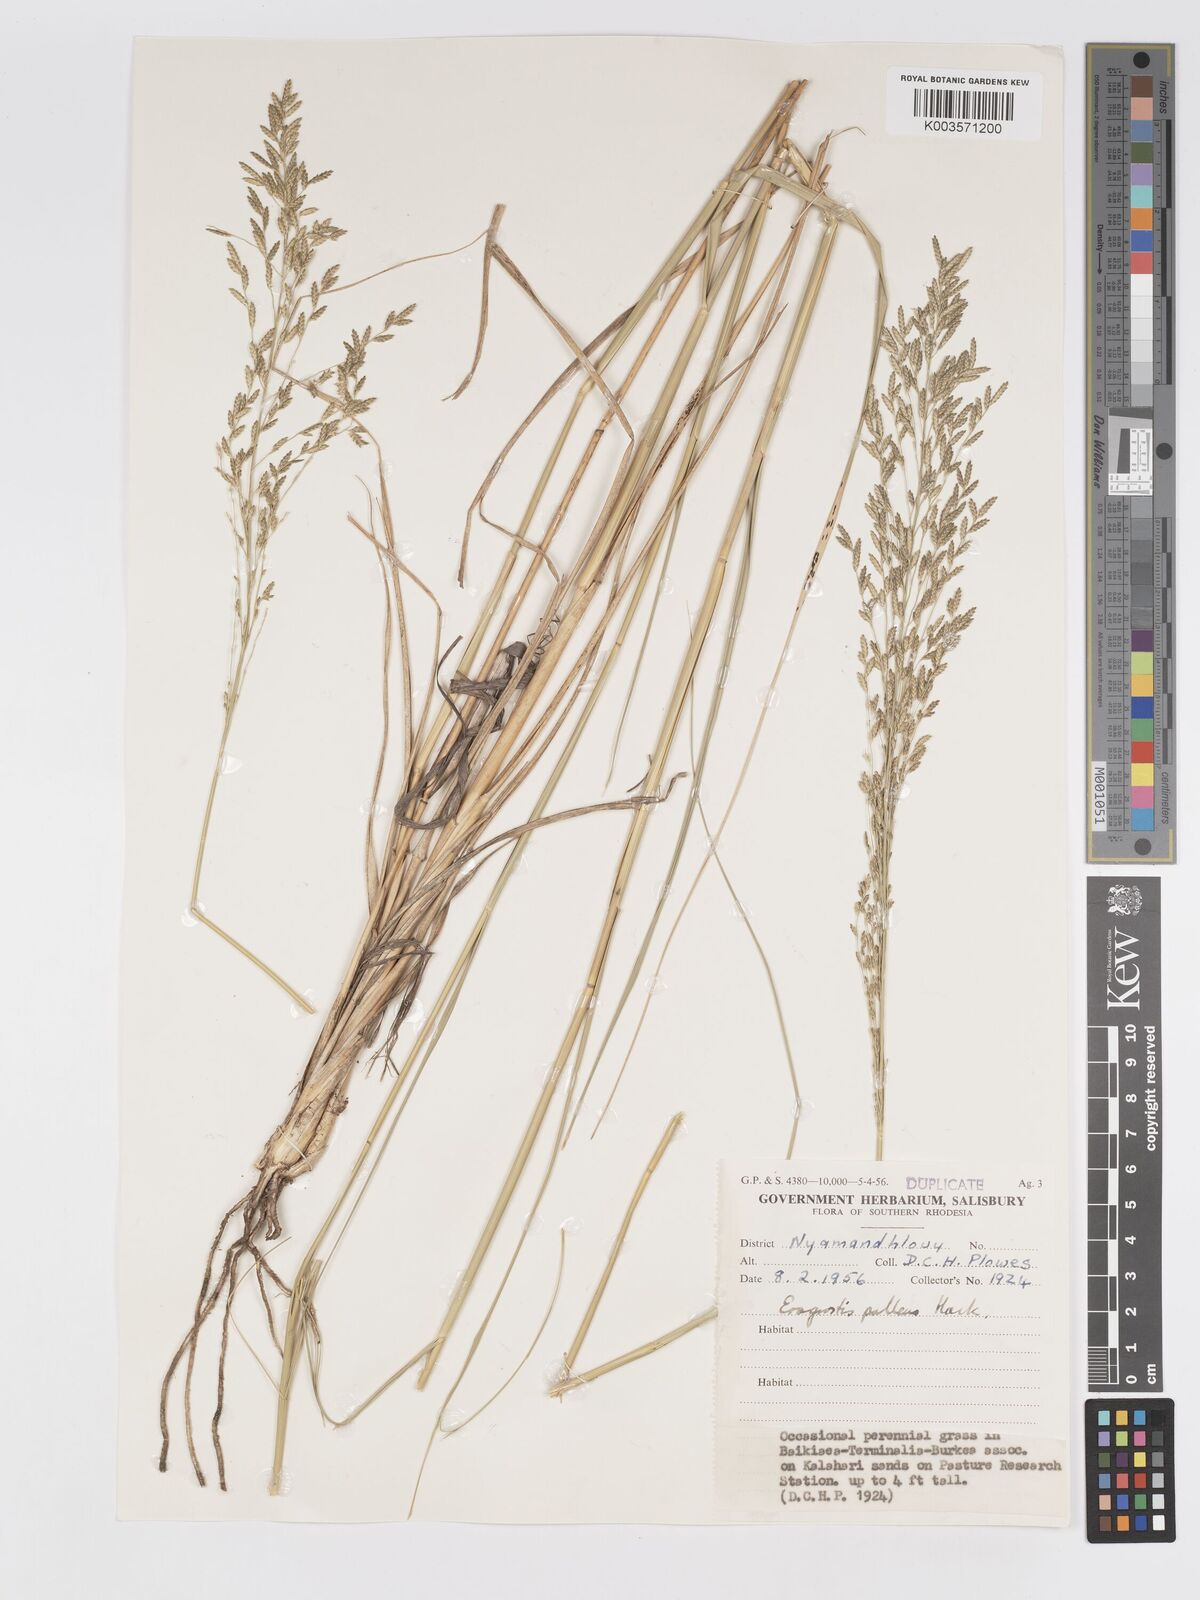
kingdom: Plantae
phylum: Tracheophyta
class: Liliopsida
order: Poales
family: Poaceae
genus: Eragrostis
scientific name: Eragrostis pallens
